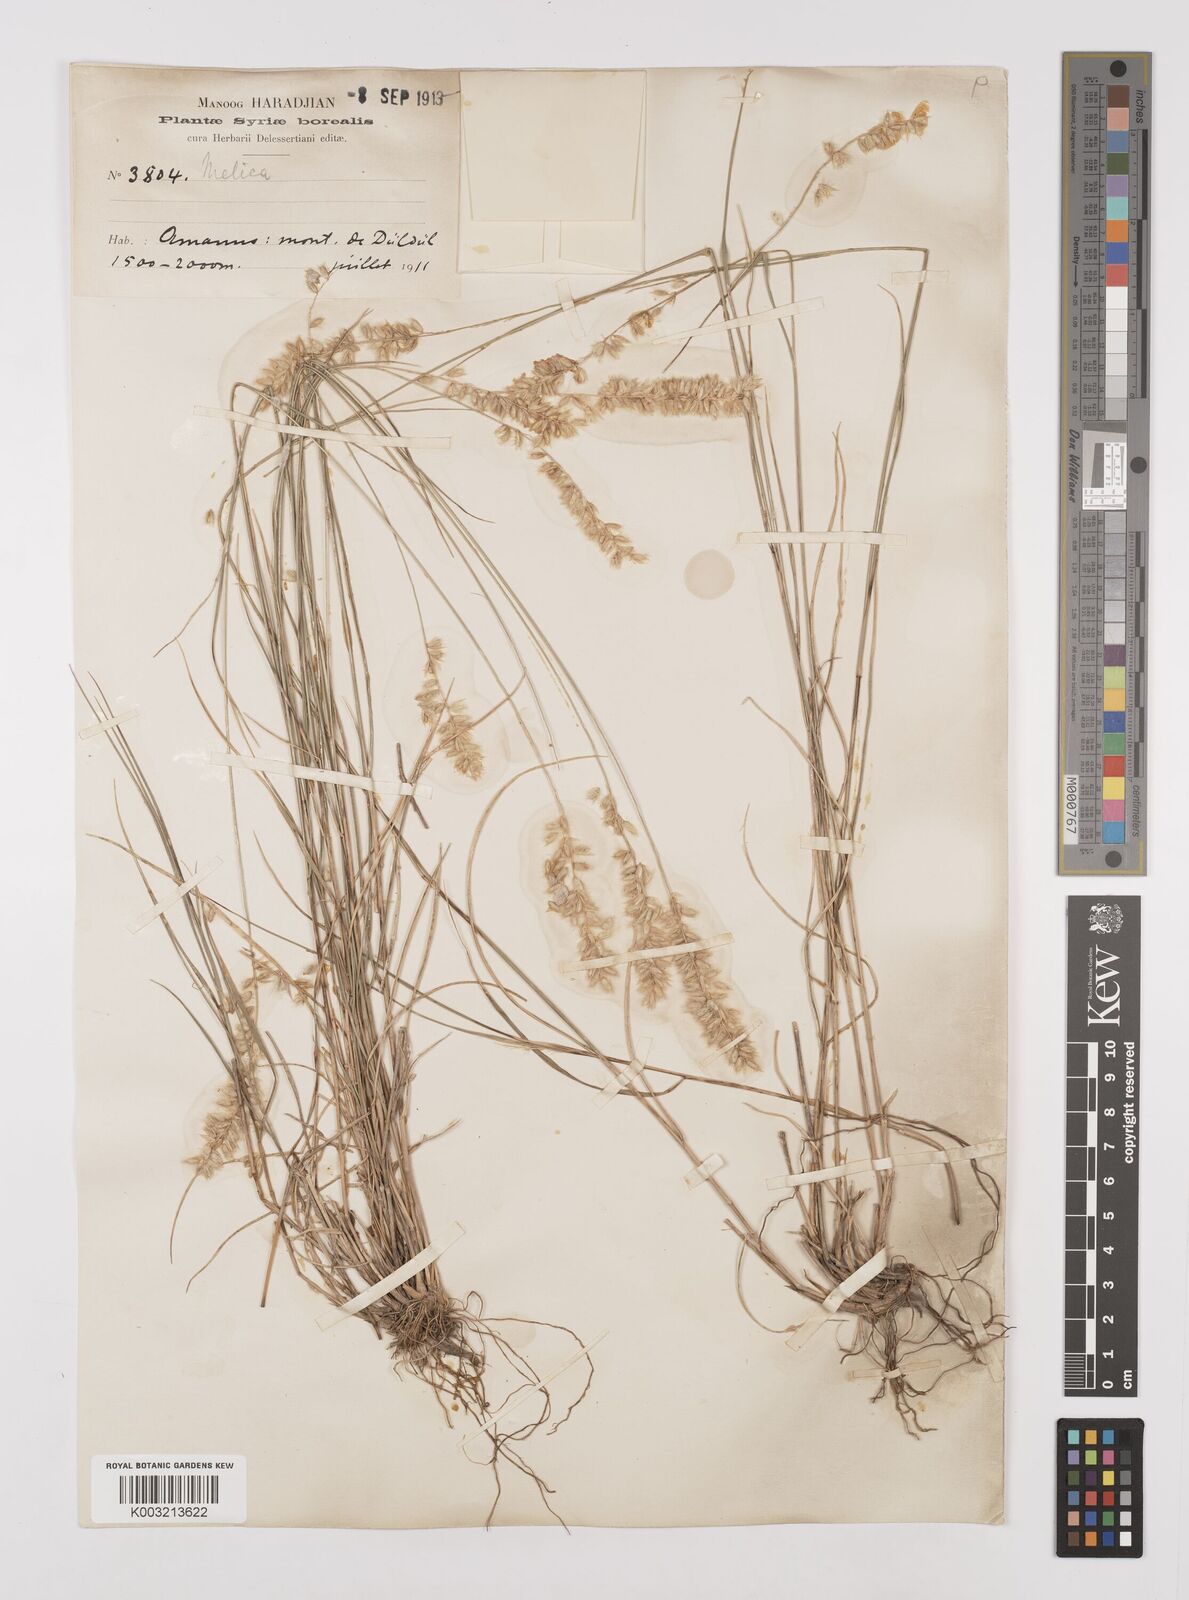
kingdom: Plantae
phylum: Tracheophyta
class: Liliopsida
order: Poales
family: Poaceae
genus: Melica
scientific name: Melica ciliata
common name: Hairy melicgrass
